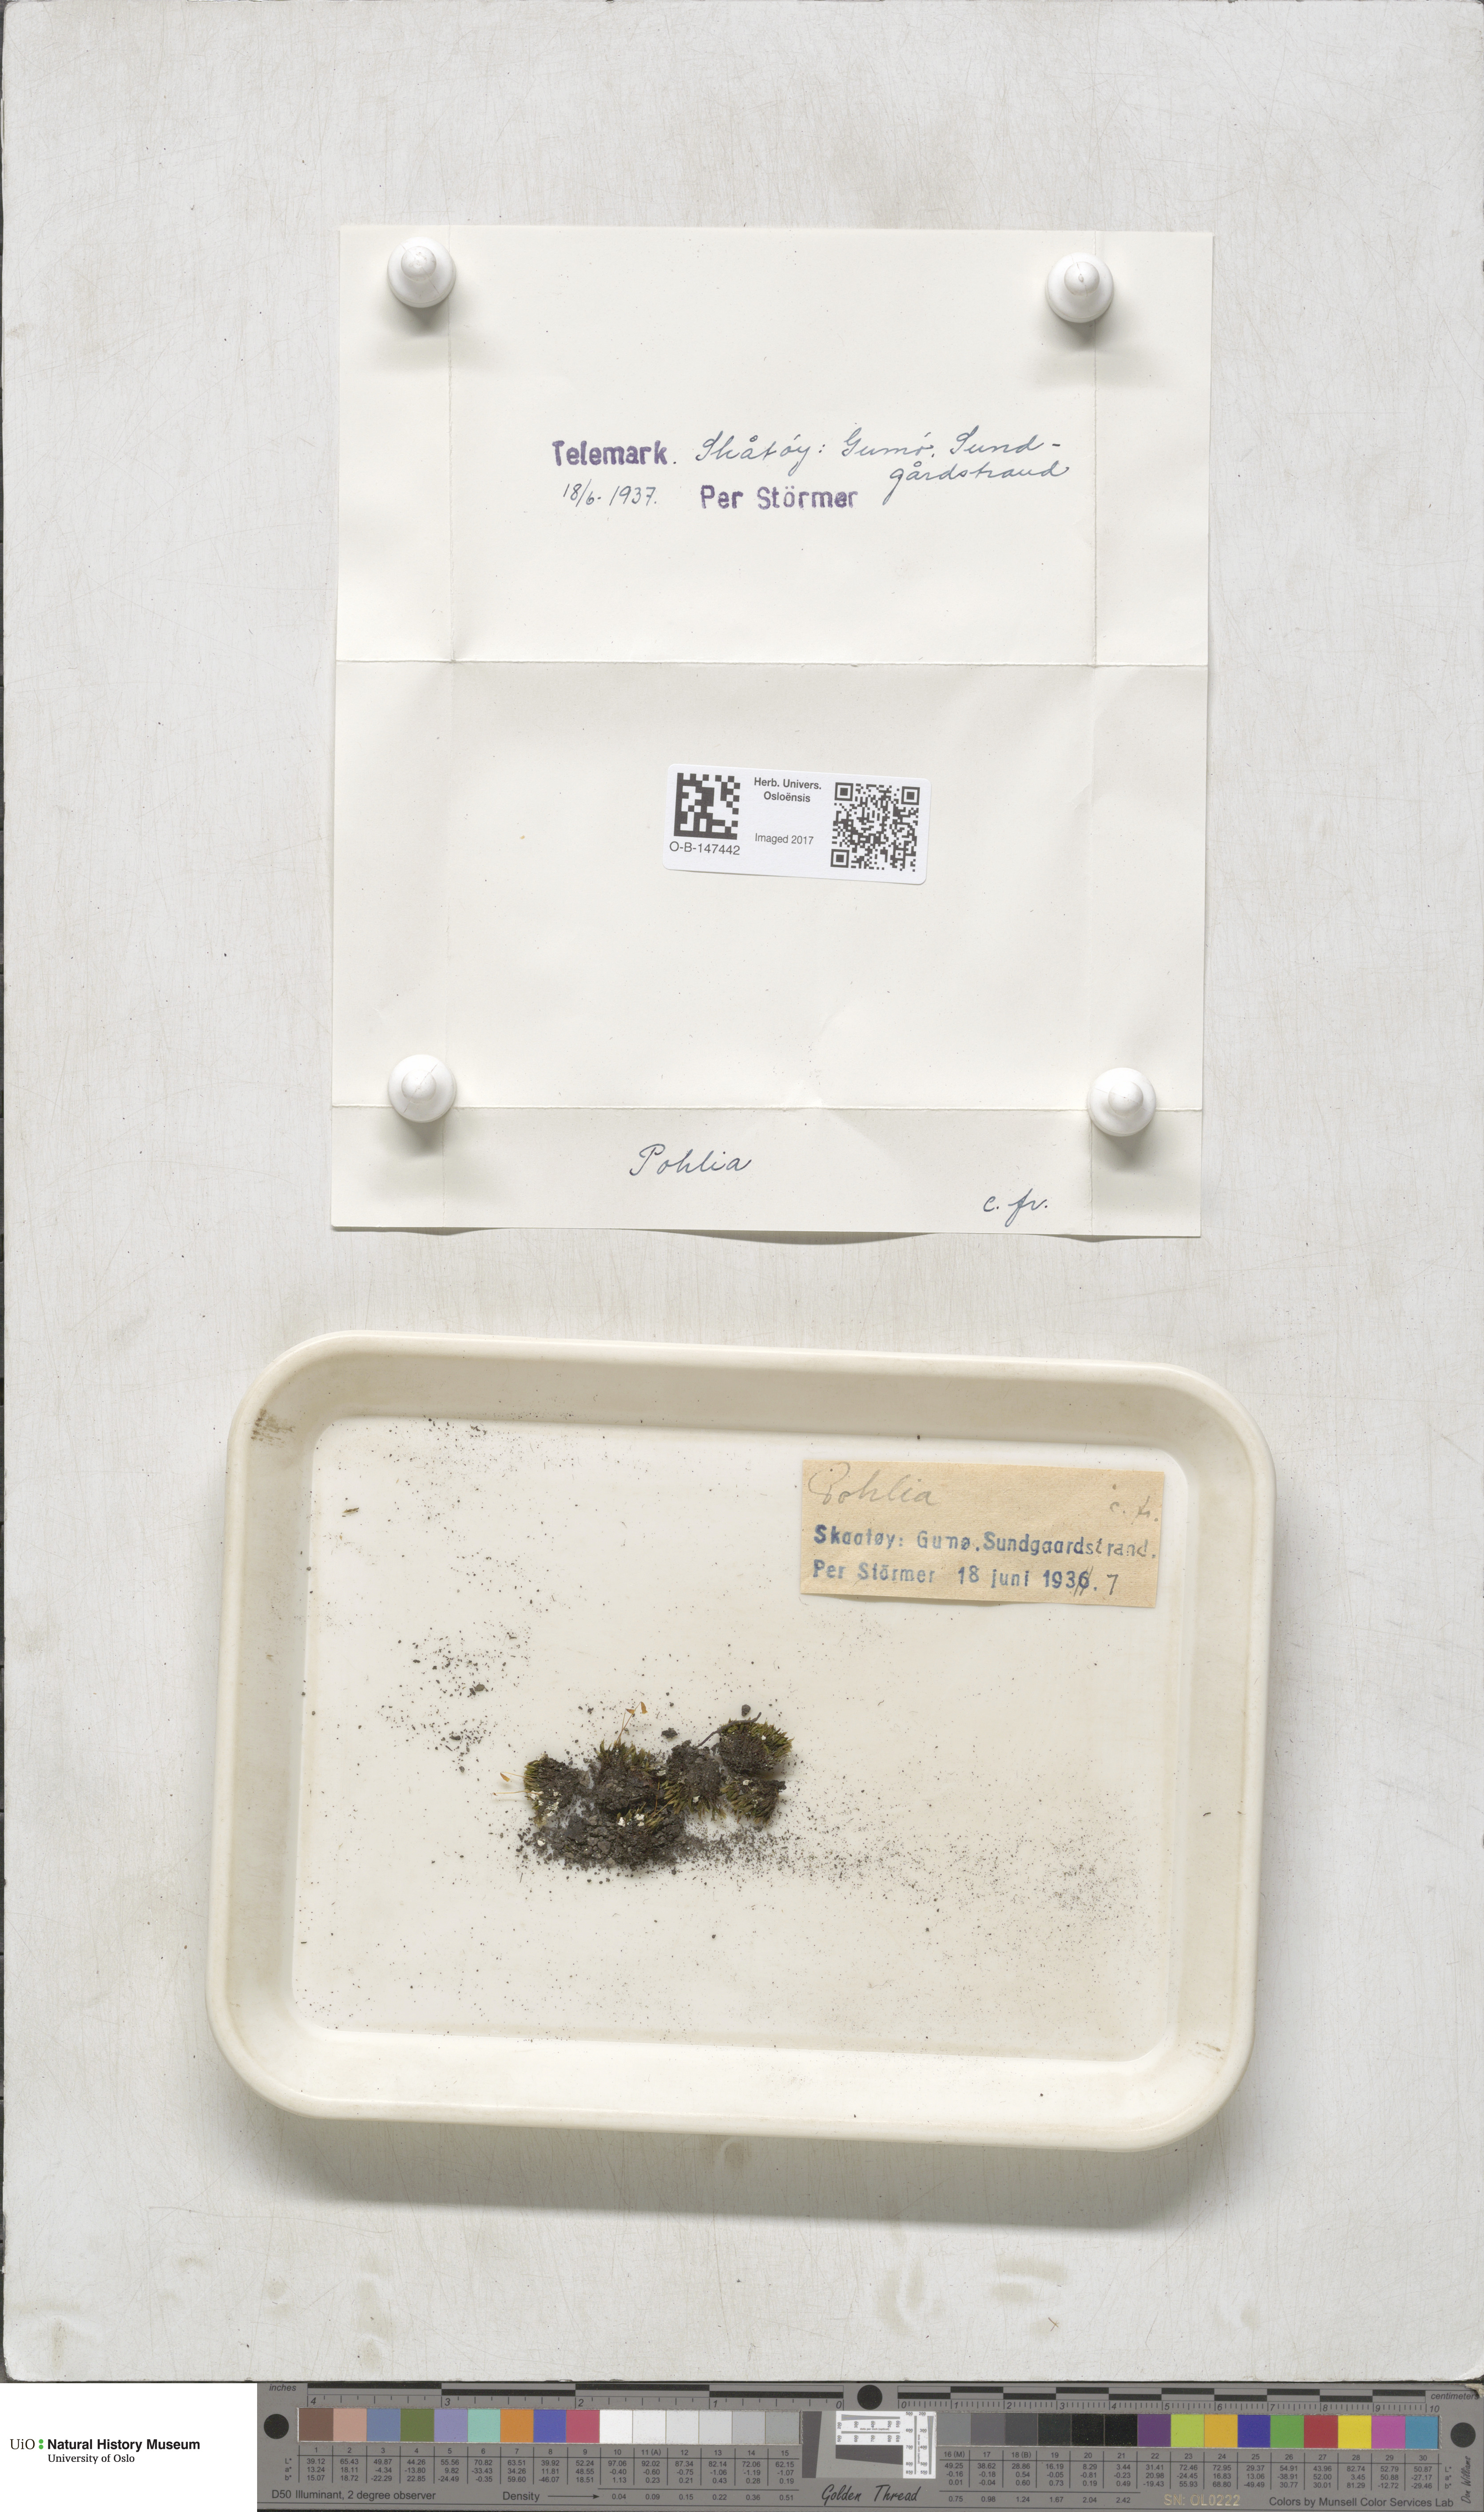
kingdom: Plantae
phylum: Bryophyta
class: Bryopsida
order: Bryales
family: Mniaceae
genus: Pohlia
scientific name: Pohlia
